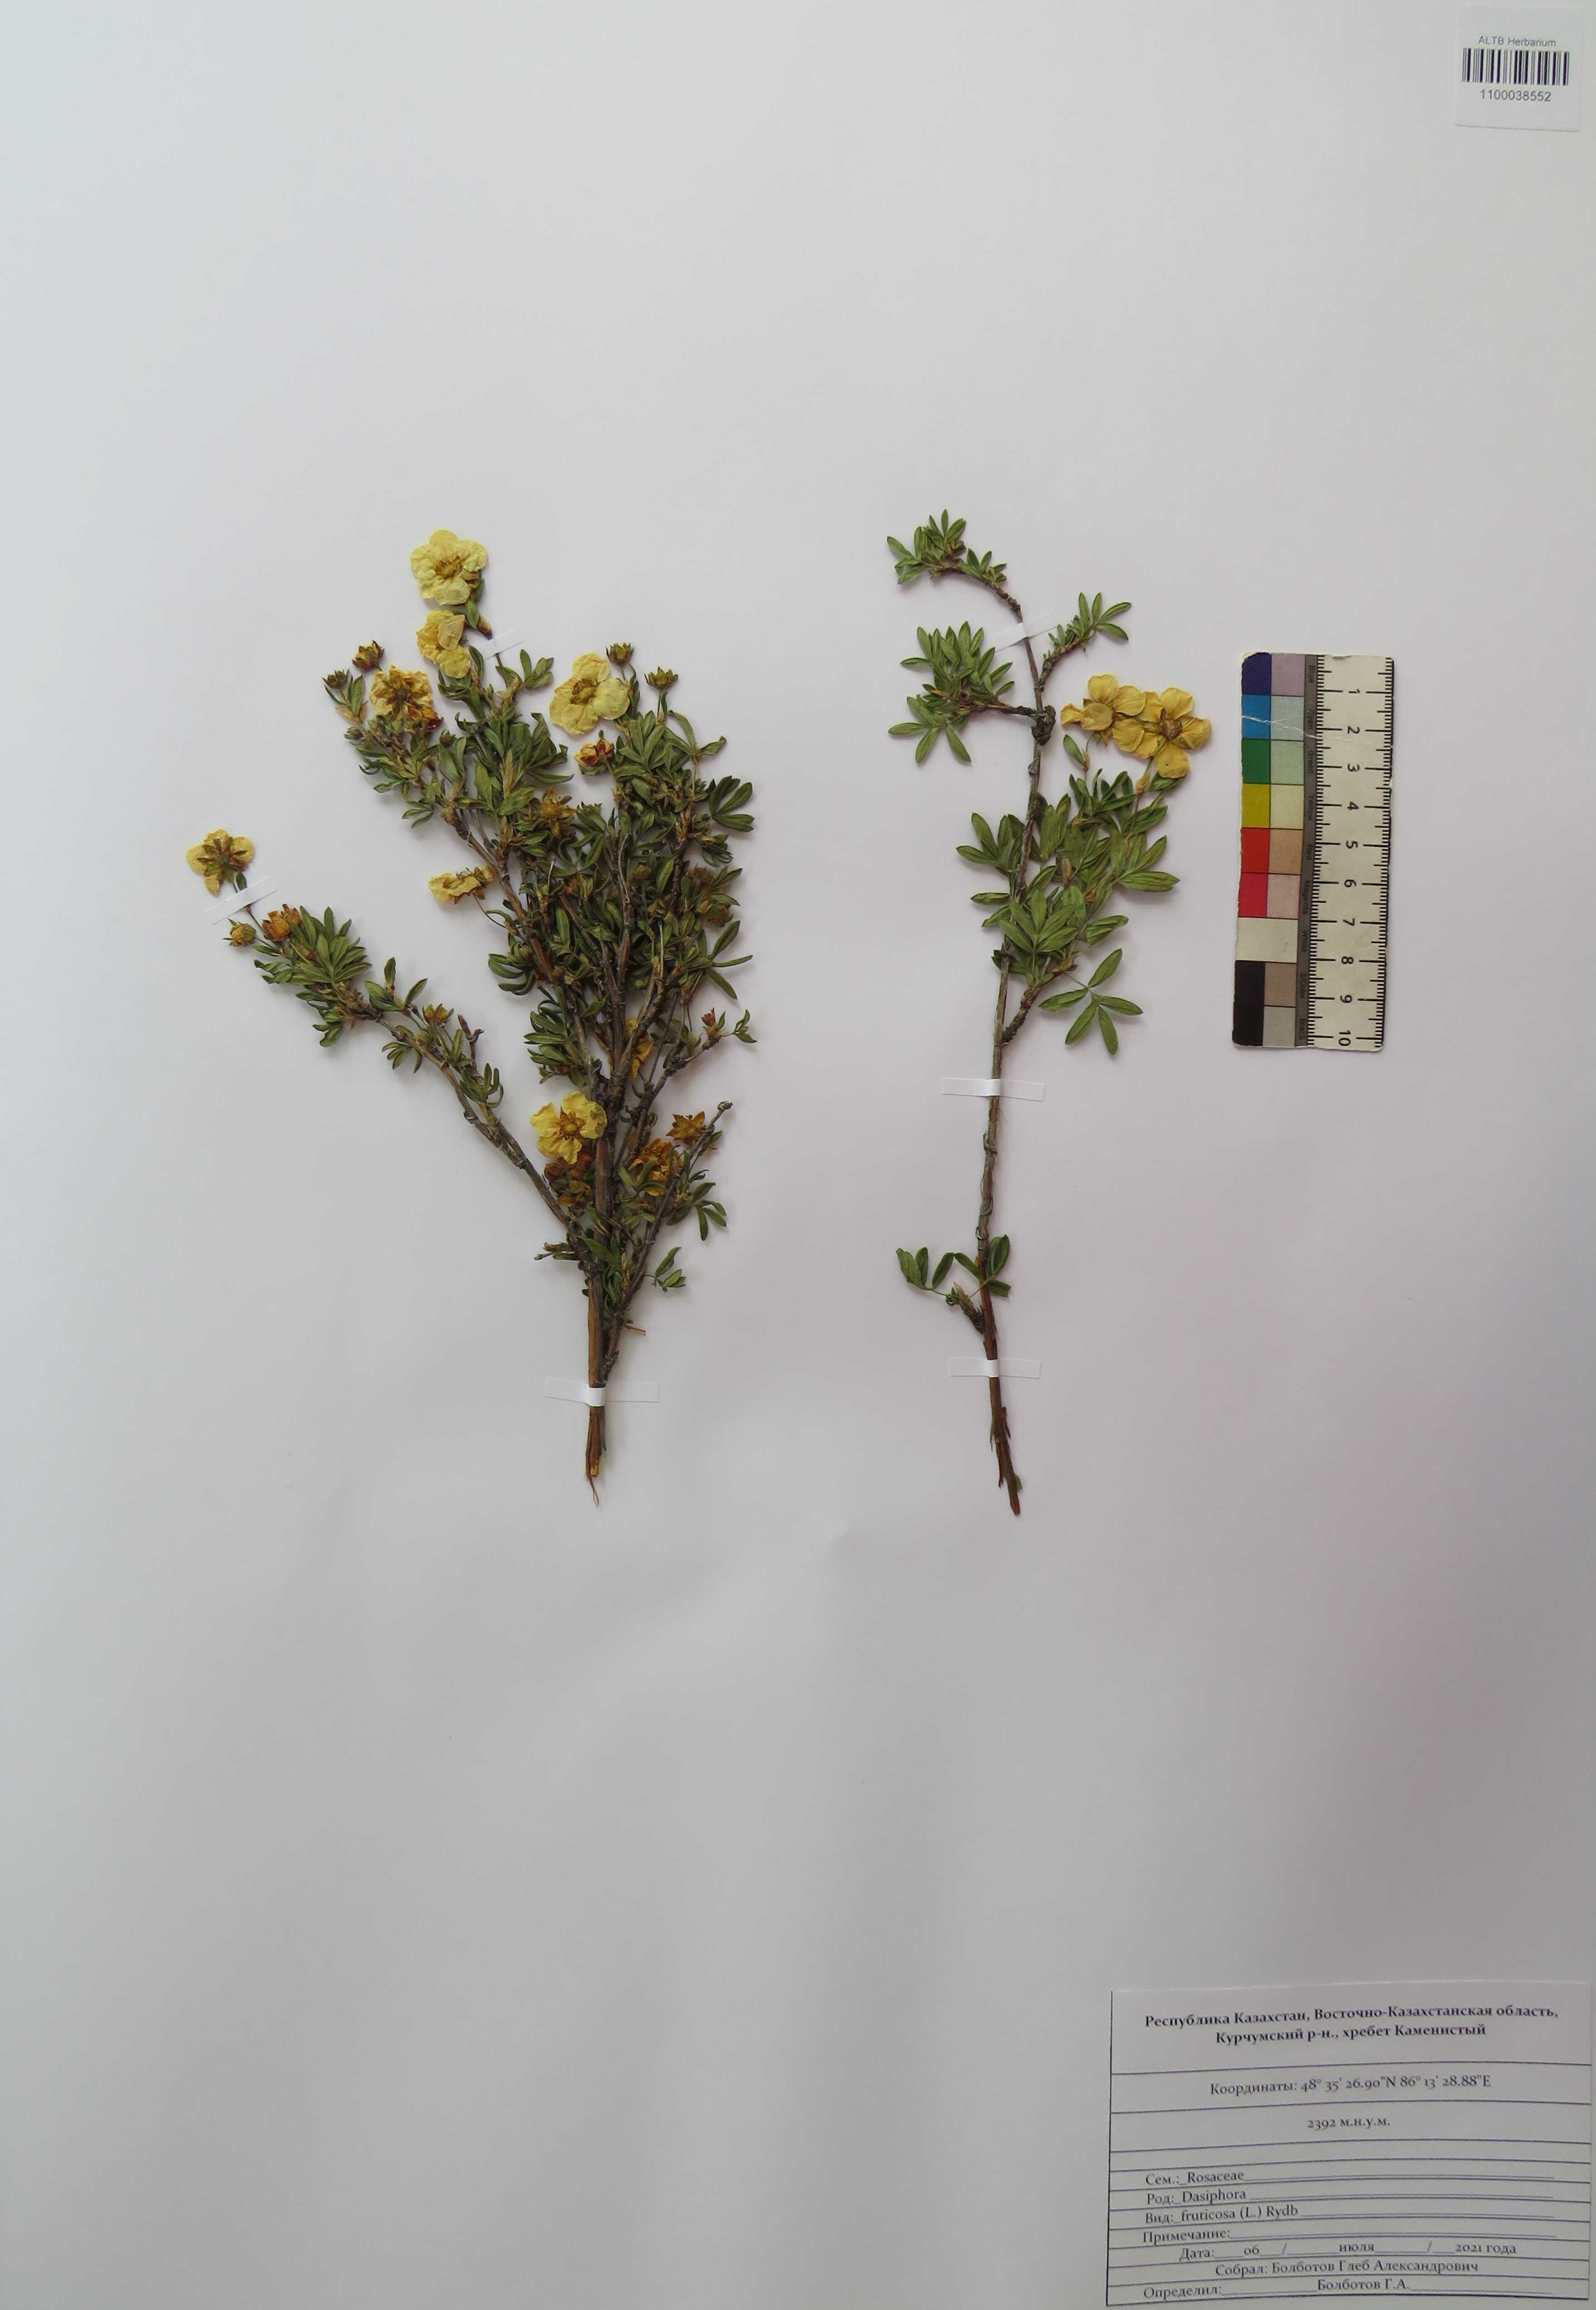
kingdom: Plantae
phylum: Tracheophyta
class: Magnoliopsida
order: Rosales
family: Rosaceae
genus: Dasiphora
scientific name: Dasiphora fruticosa
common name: Shrubby cinquefoil
